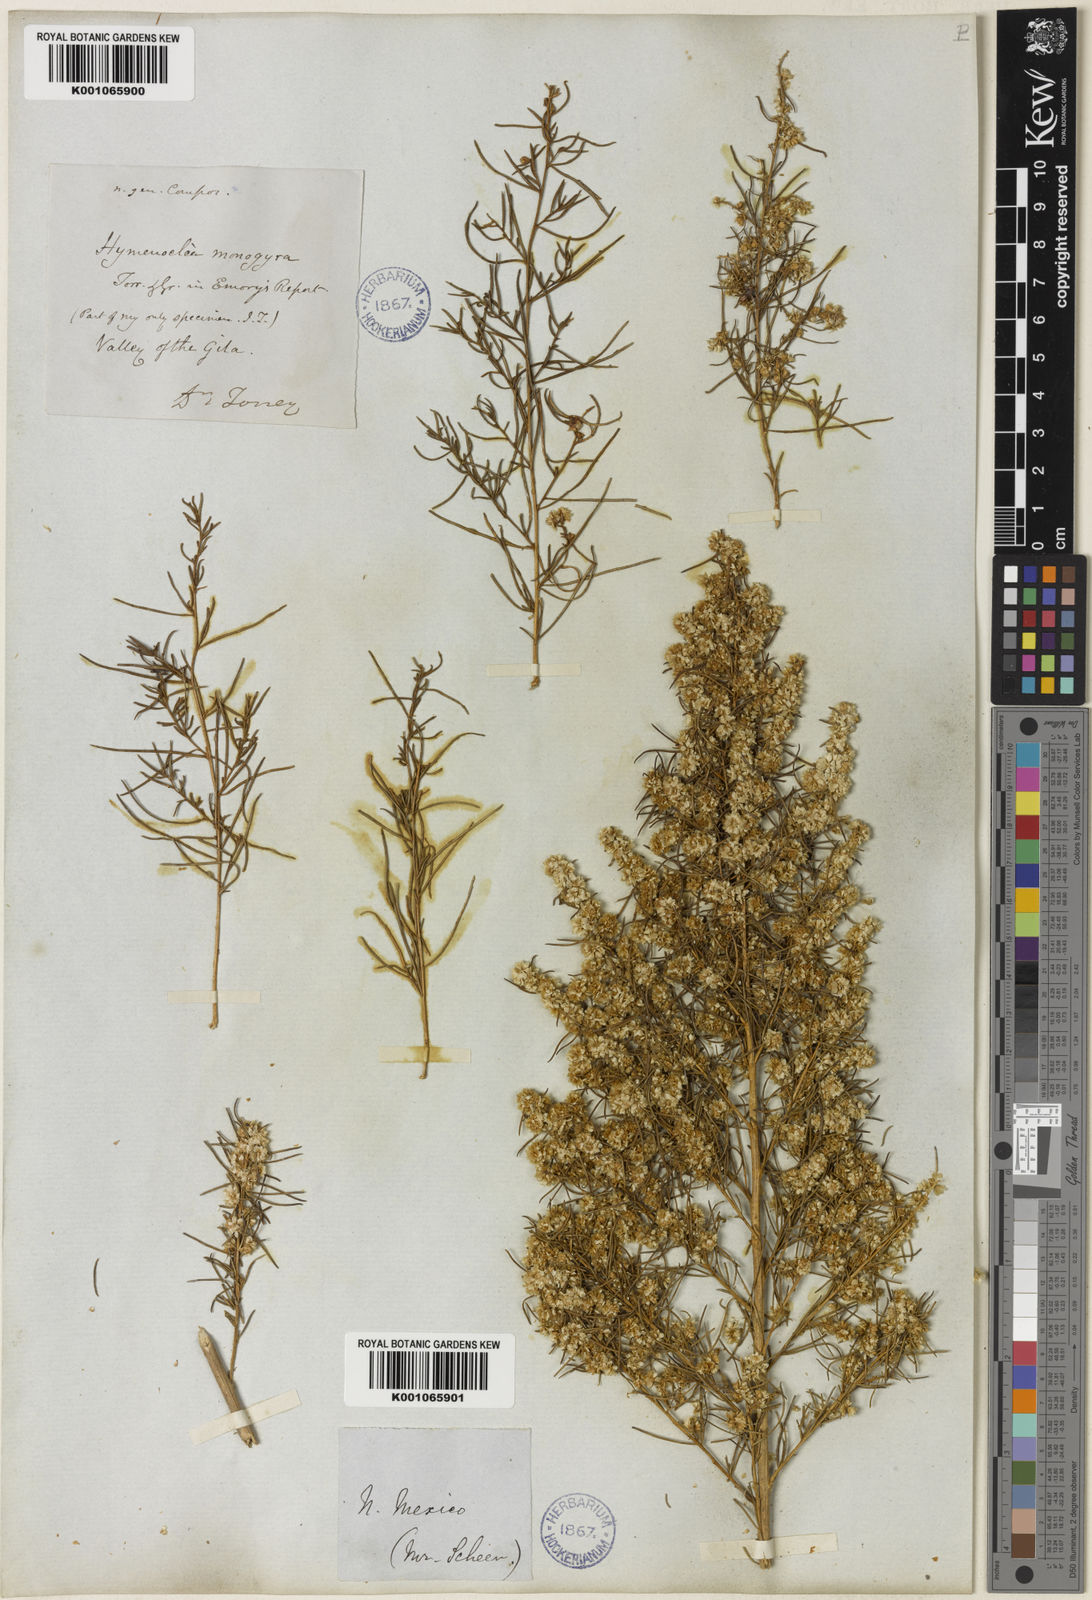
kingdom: Plantae
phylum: Tracheophyta
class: Magnoliopsida
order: Asterales
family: Asteraceae
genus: Ambrosia
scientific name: Ambrosia monogyra
